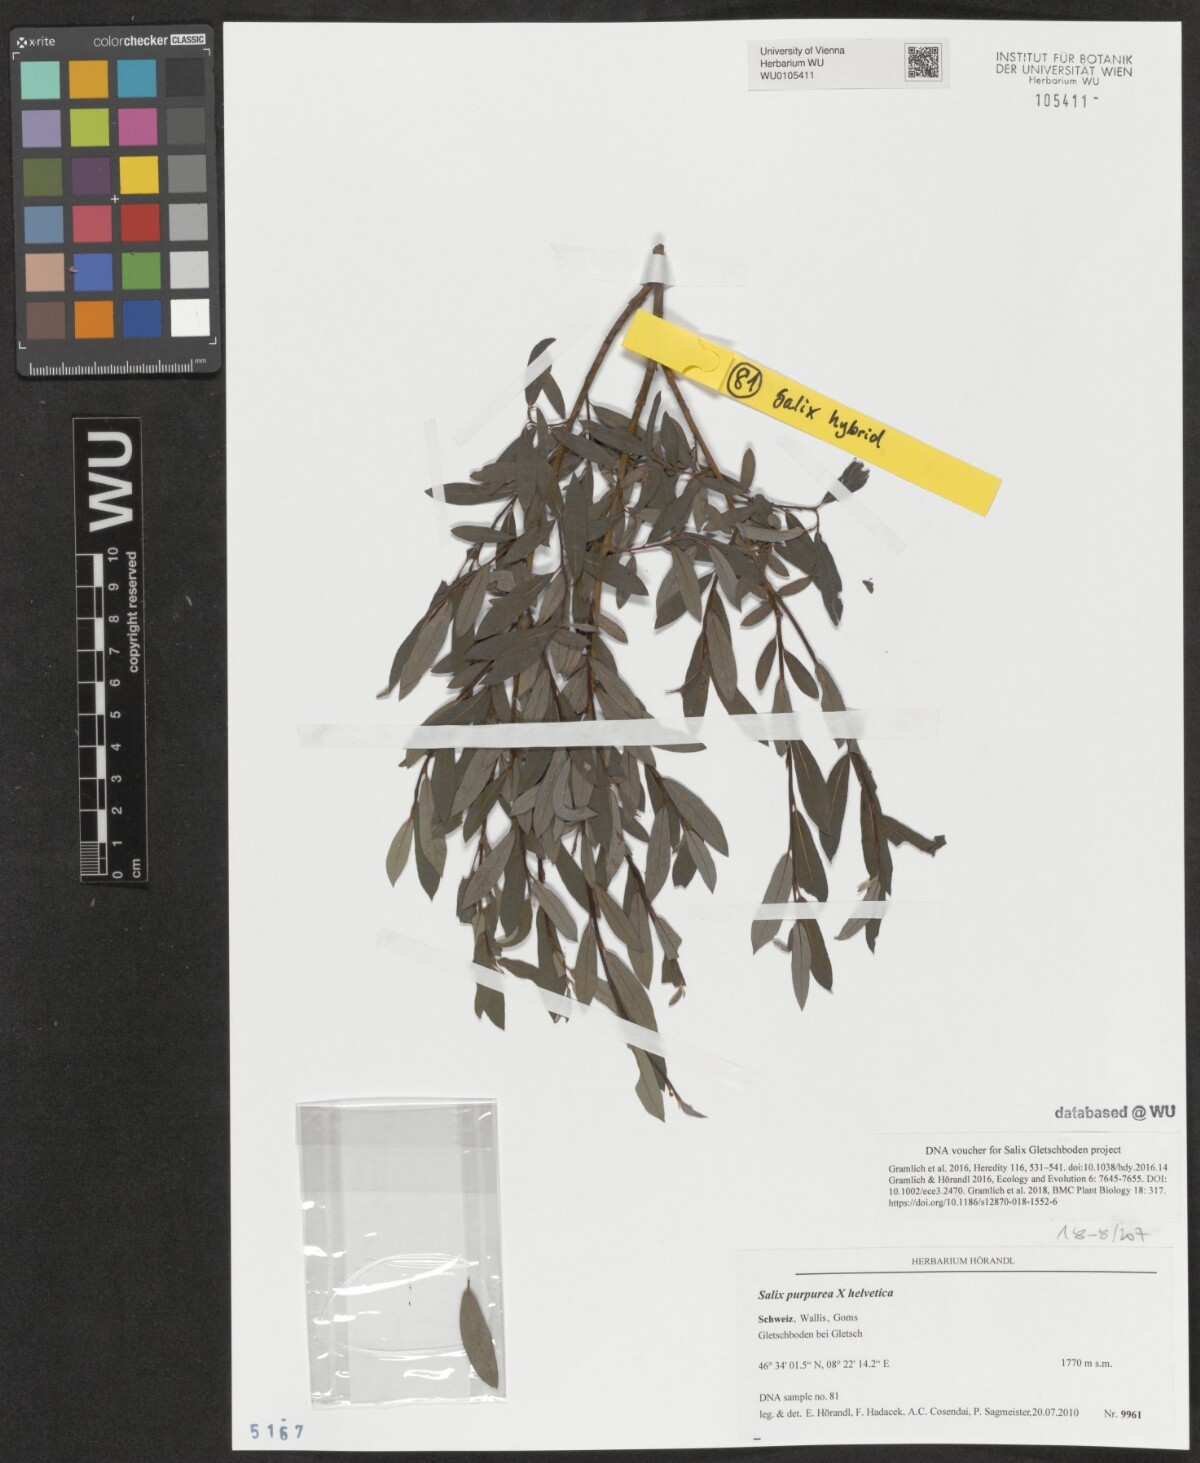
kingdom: Plantae
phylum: Tracheophyta
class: Magnoliopsida
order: Malpighiales
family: Salicaceae
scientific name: Salicaceae
